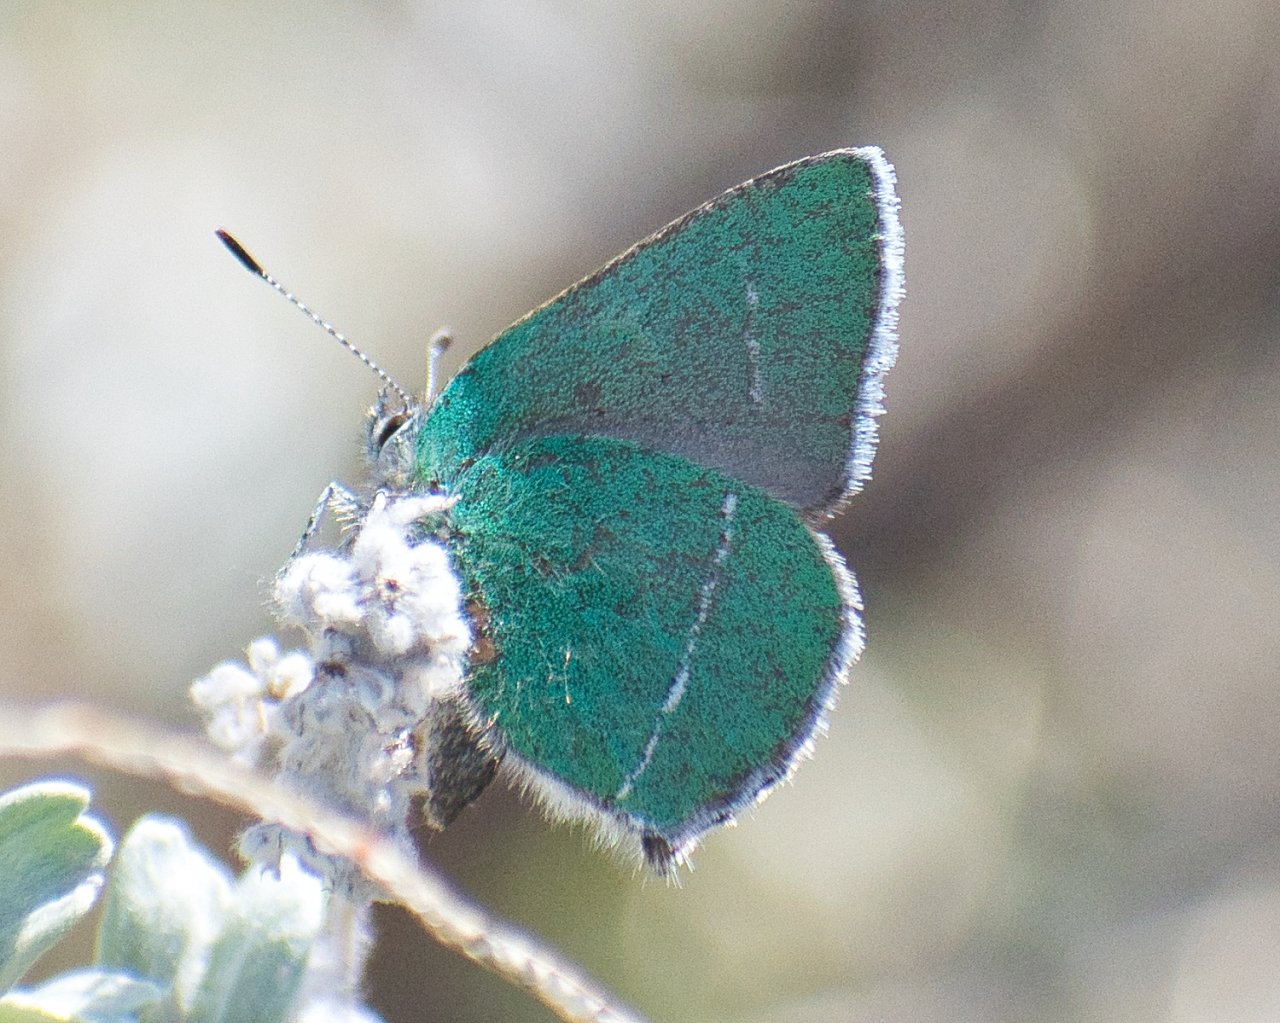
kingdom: Animalia
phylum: Arthropoda
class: Insecta
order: Lepidoptera
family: Lycaenidae
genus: Thecla
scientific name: Thecla sheridanii
